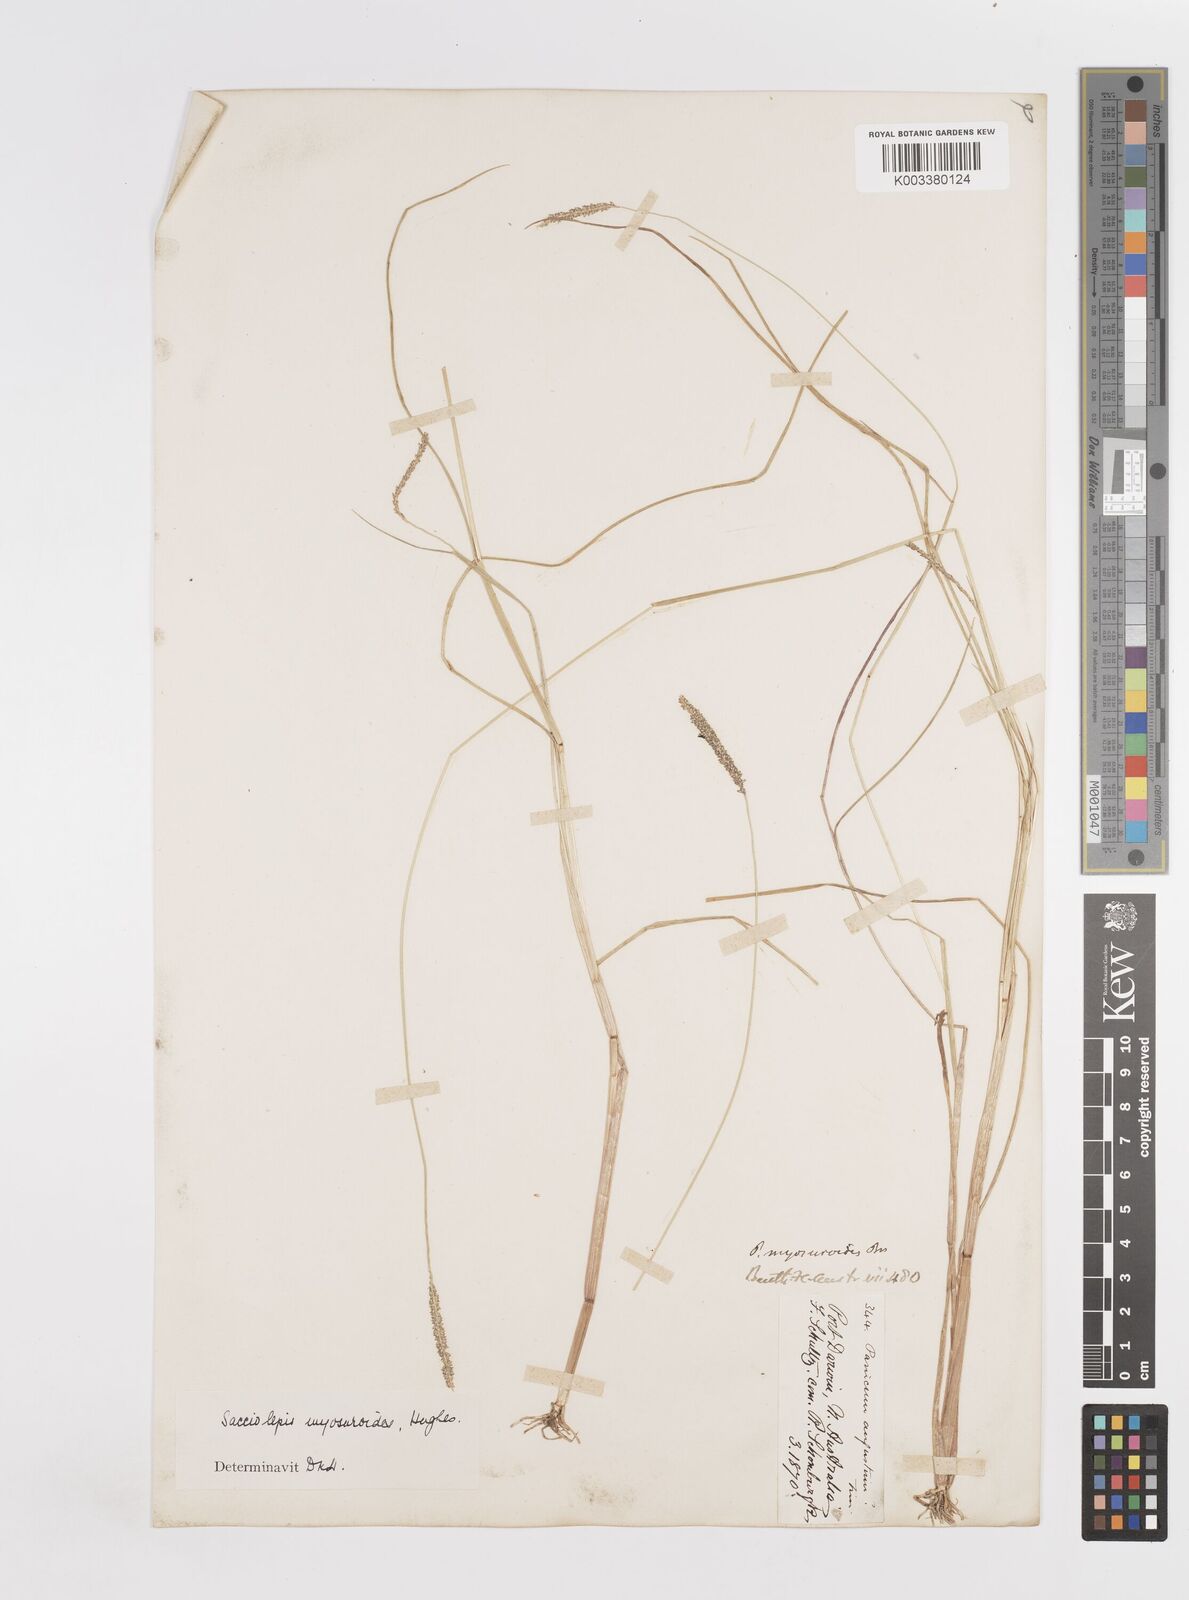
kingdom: Plantae
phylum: Tracheophyta
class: Liliopsida
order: Poales
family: Poaceae
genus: Sacciolepis
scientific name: Sacciolepis myosuroides
